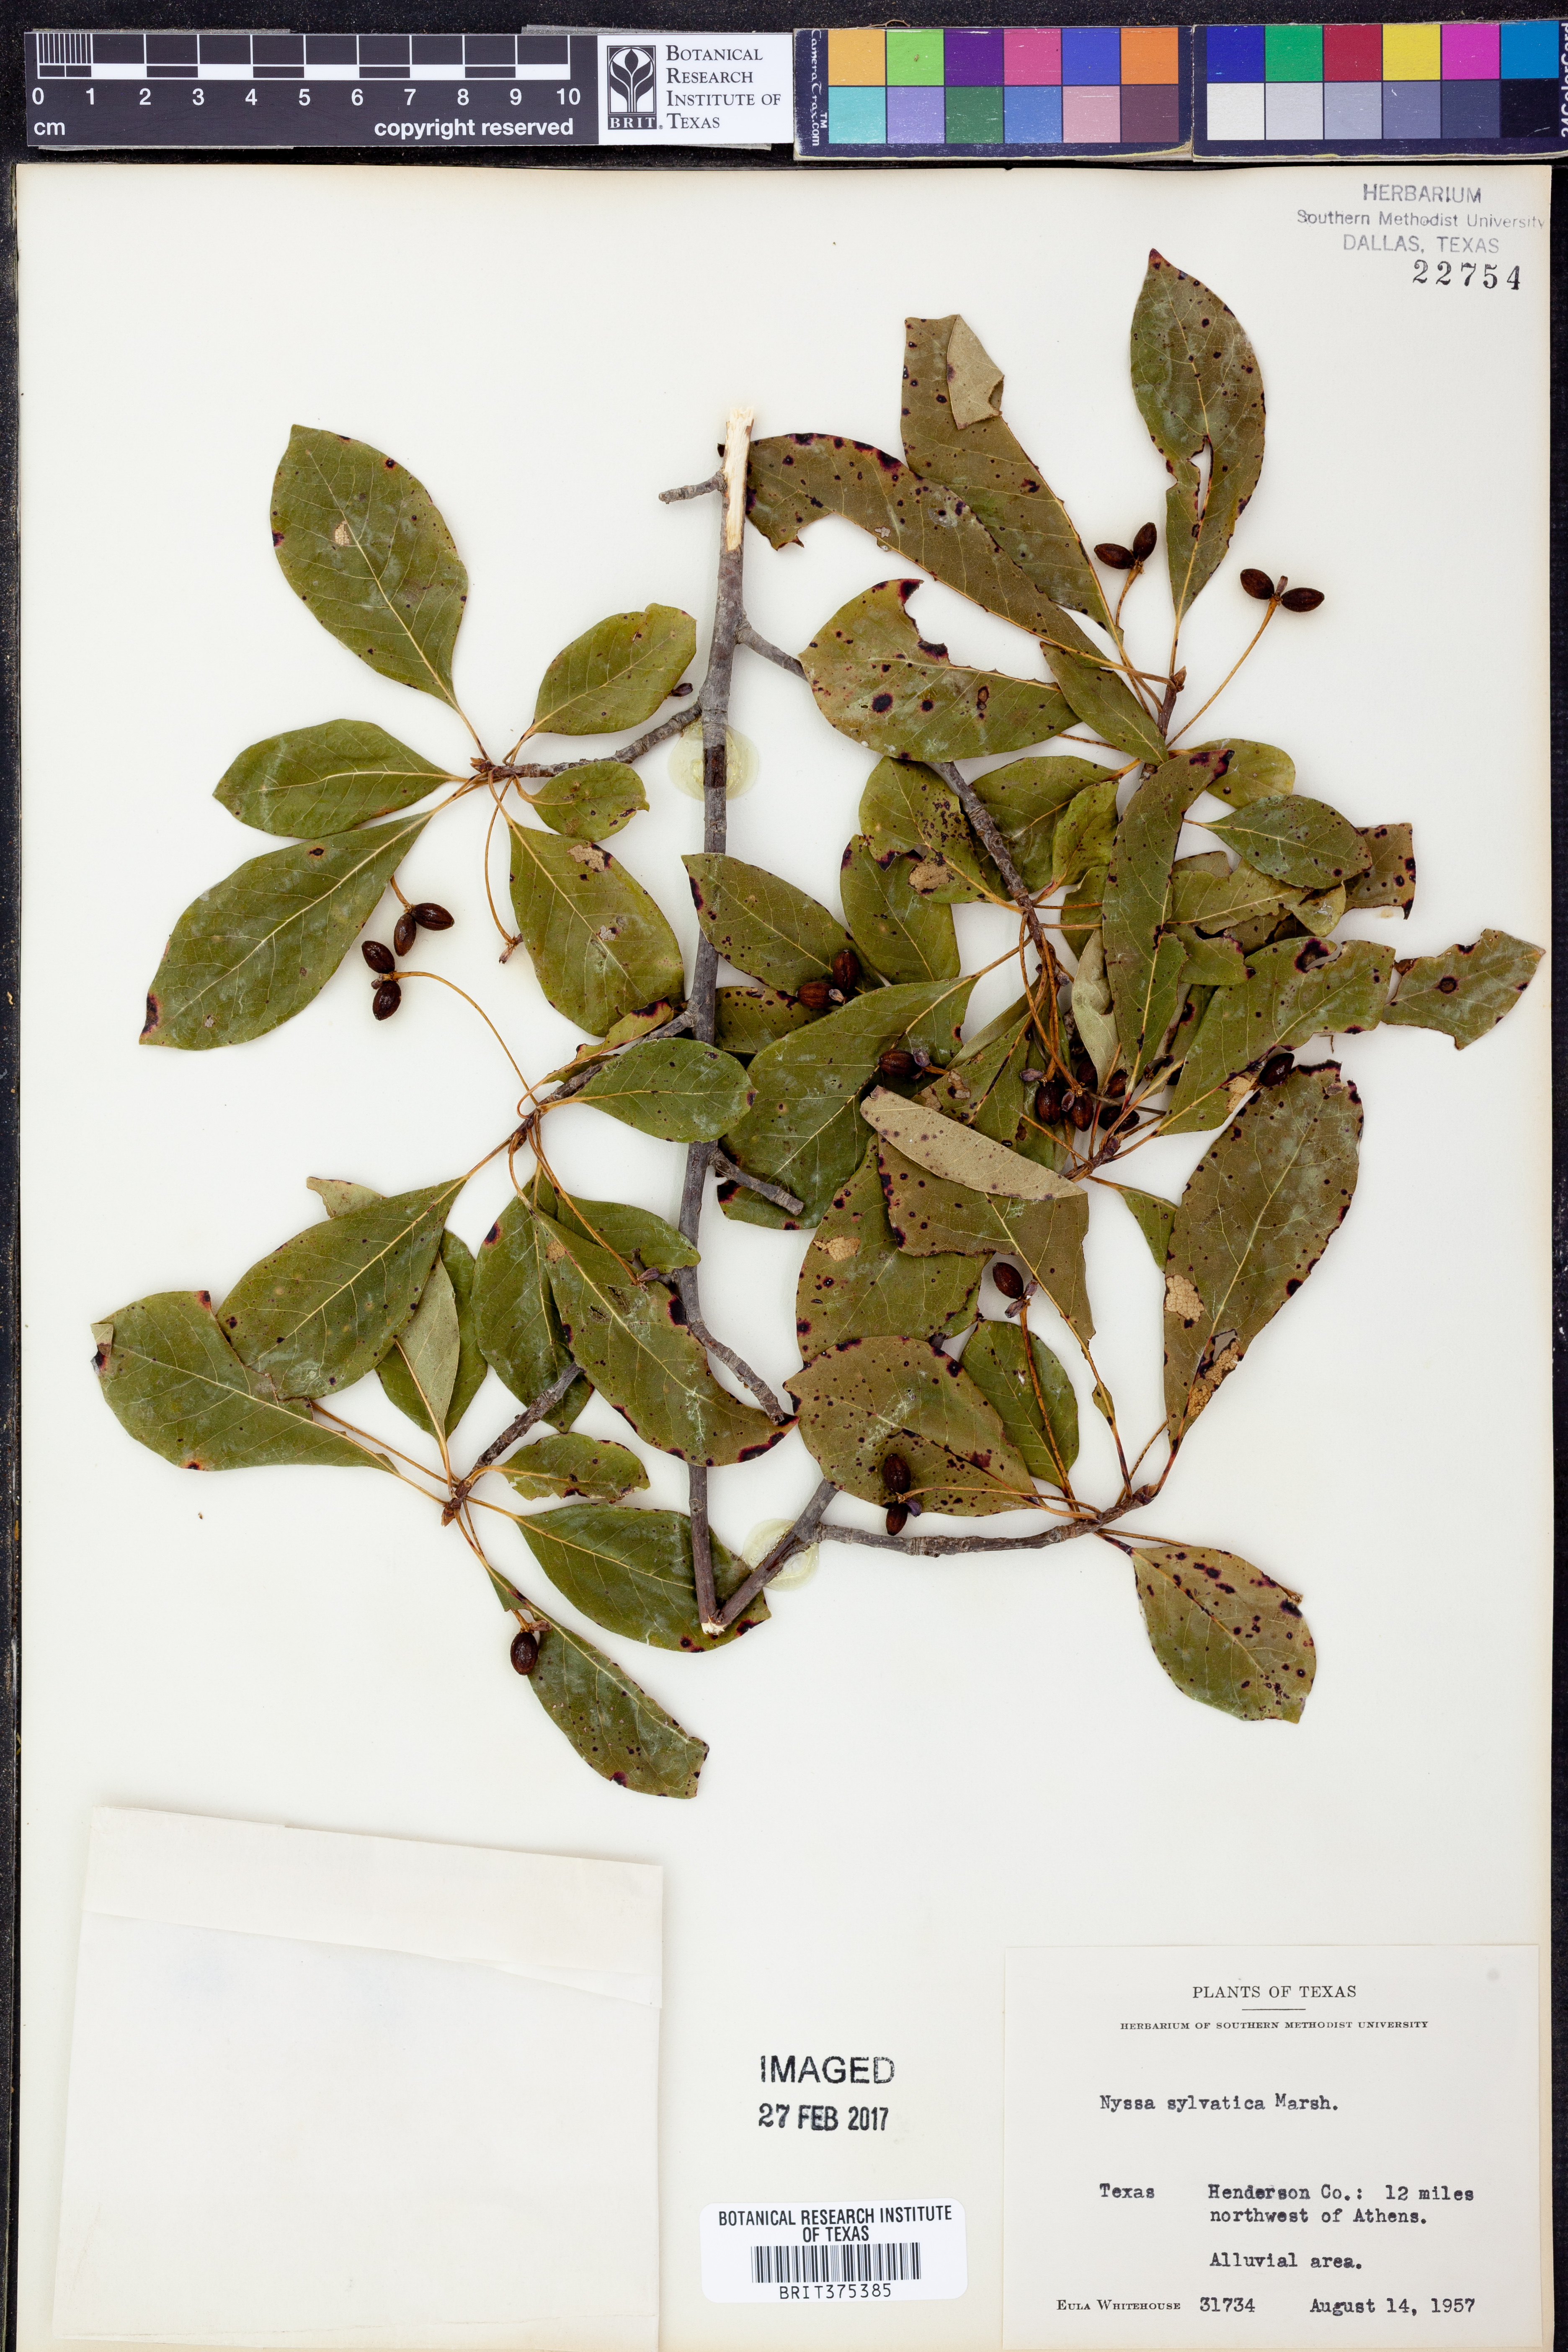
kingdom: Plantae
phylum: Tracheophyta
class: Magnoliopsida
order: Cornales
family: Nyssaceae
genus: Nyssa
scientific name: Nyssa sylvatica
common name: Black tupelo
